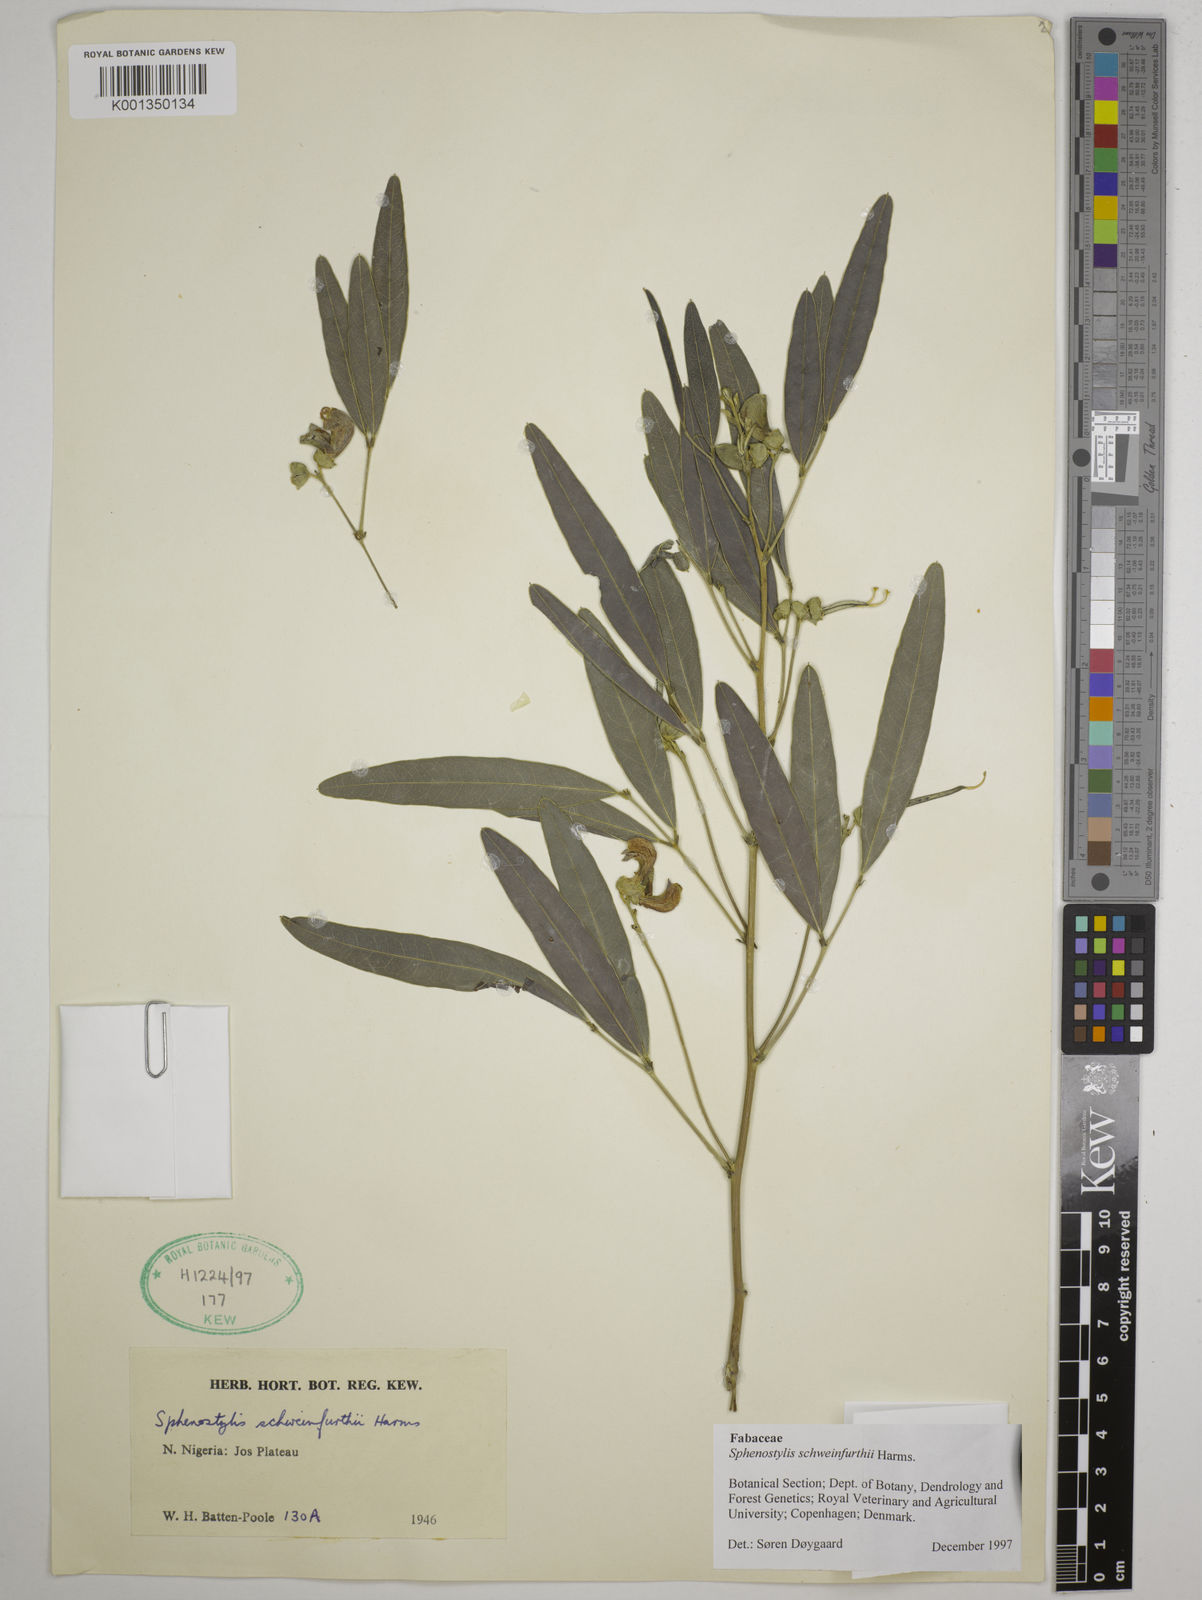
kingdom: Plantae
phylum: Tracheophyta
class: Magnoliopsida
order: Fabales
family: Fabaceae
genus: Sphenostylis
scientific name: Sphenostylis schweinfurthii
